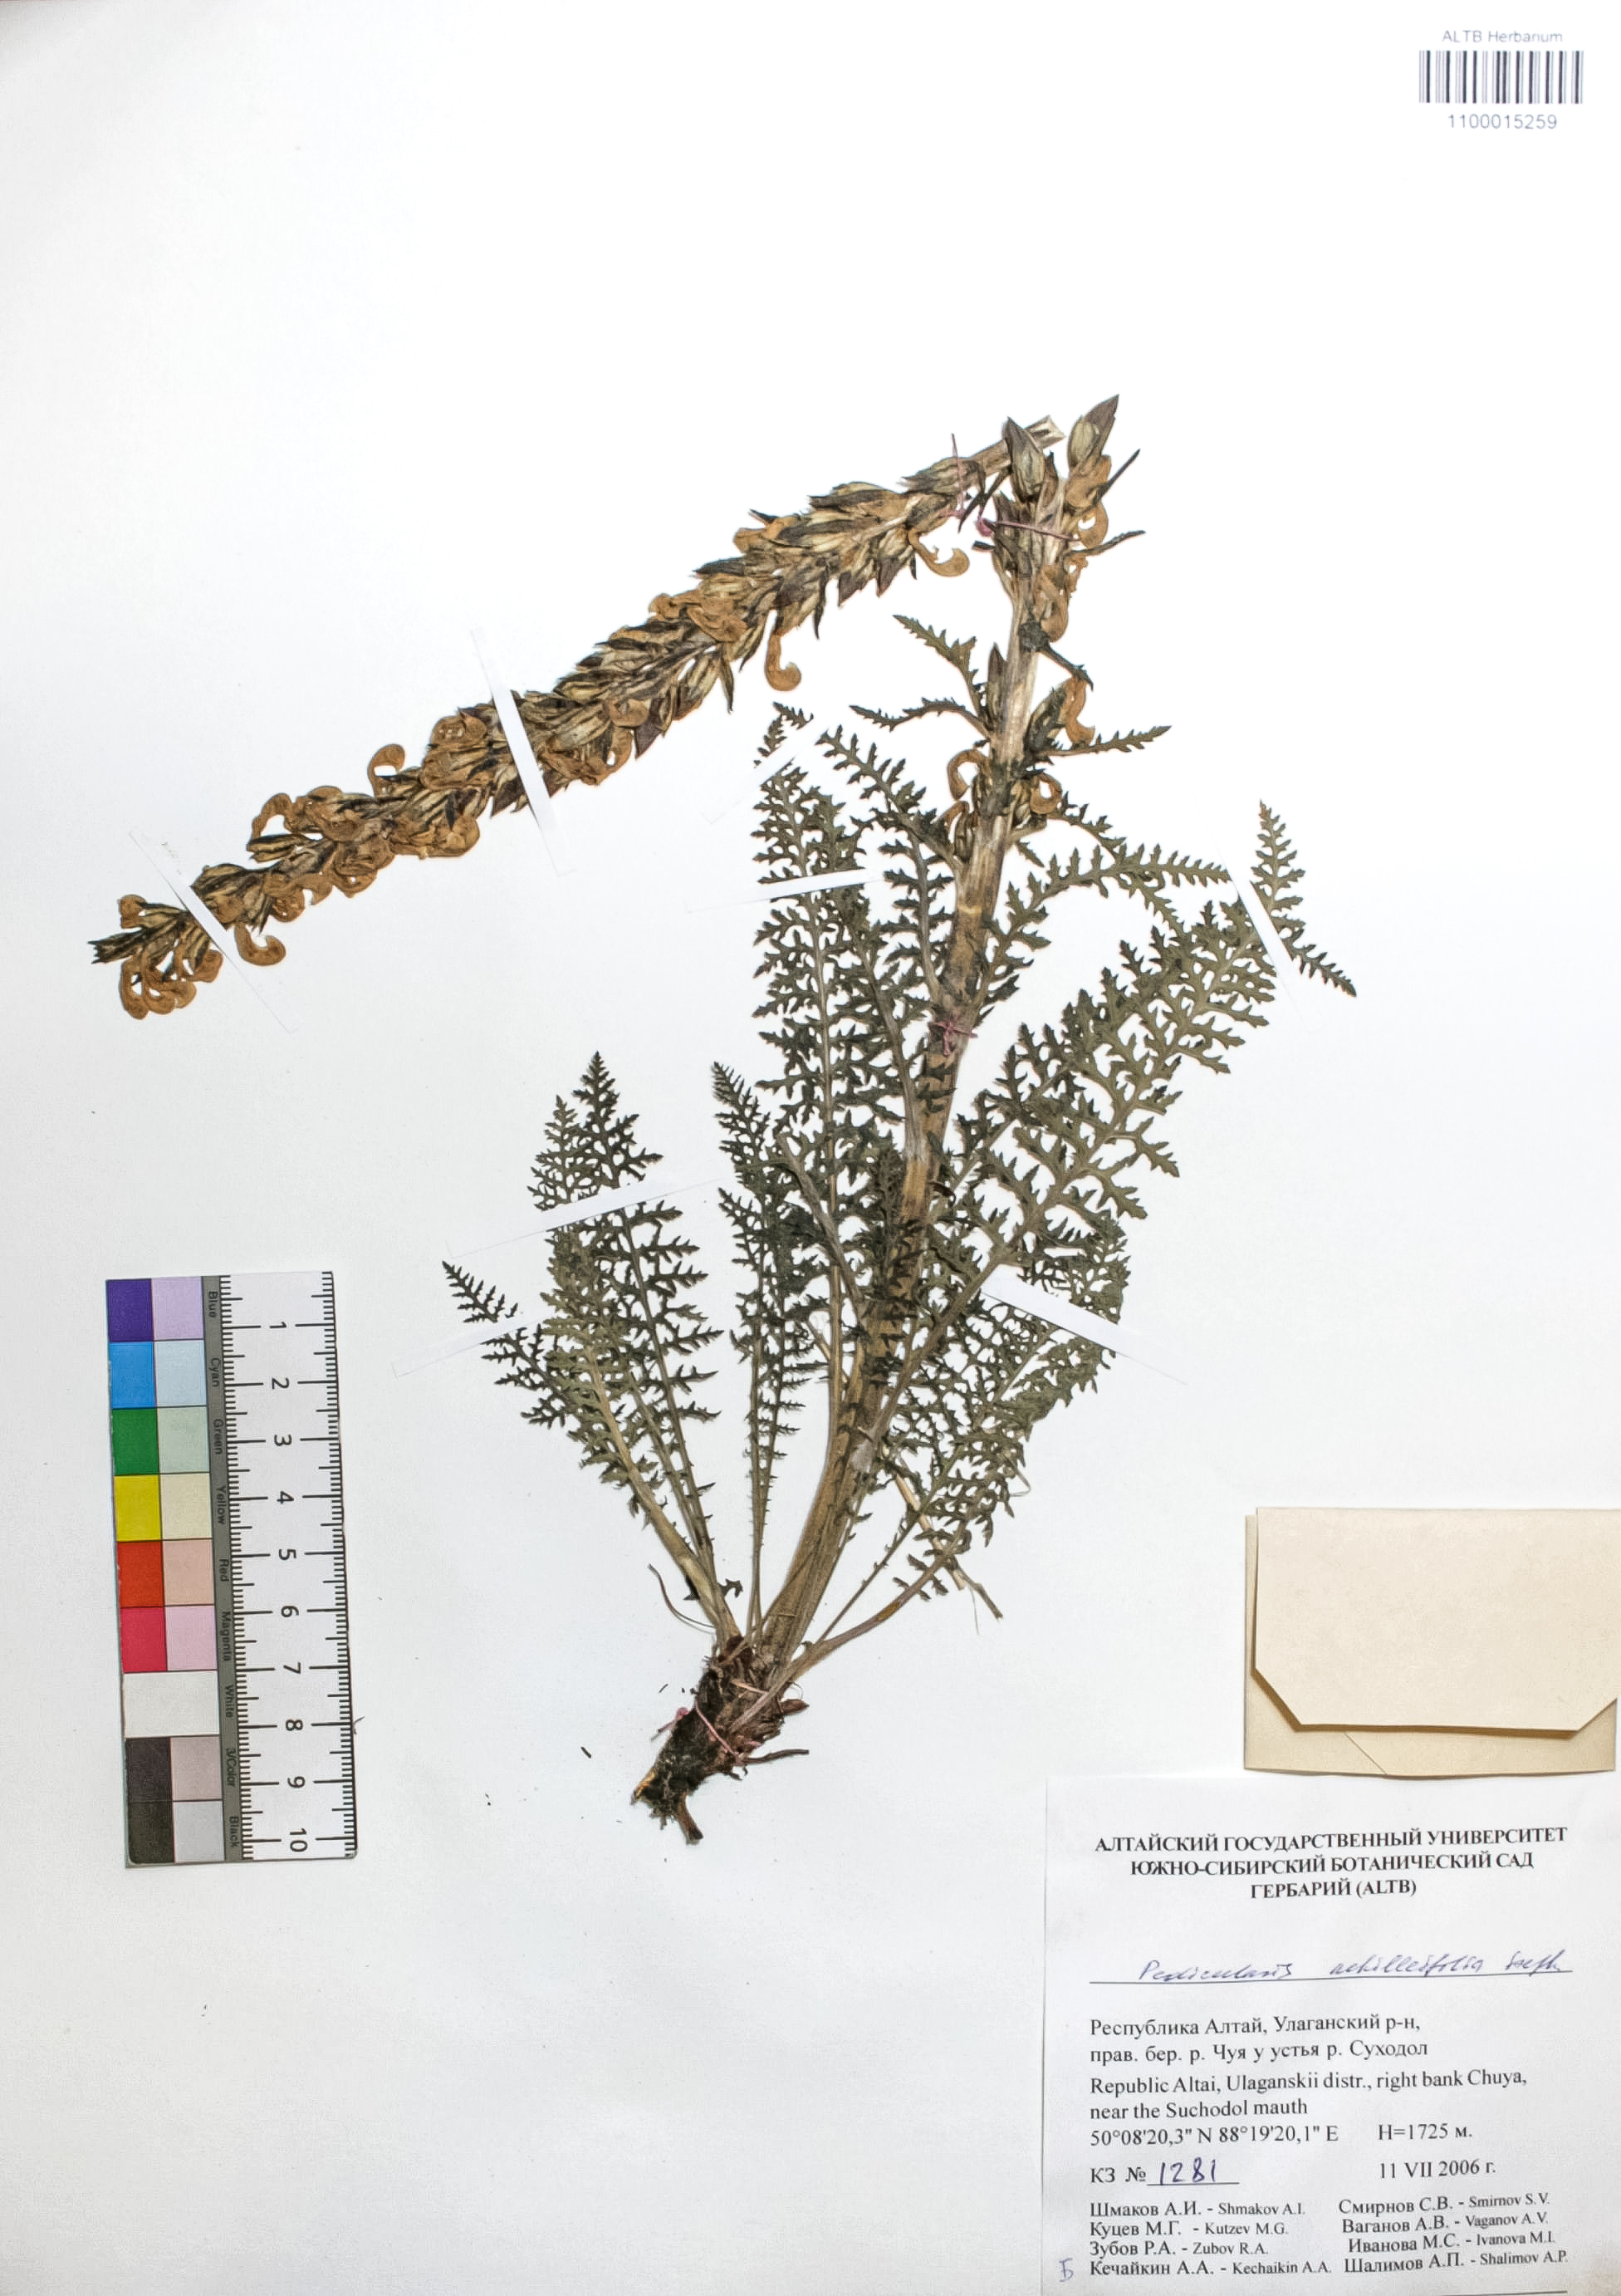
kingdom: Plantae
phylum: Tracheophyta
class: Magnoliopsida
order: Lamiales
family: Orobanchaceae
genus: Pedicularis
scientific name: Pedicularis achilleifolia
